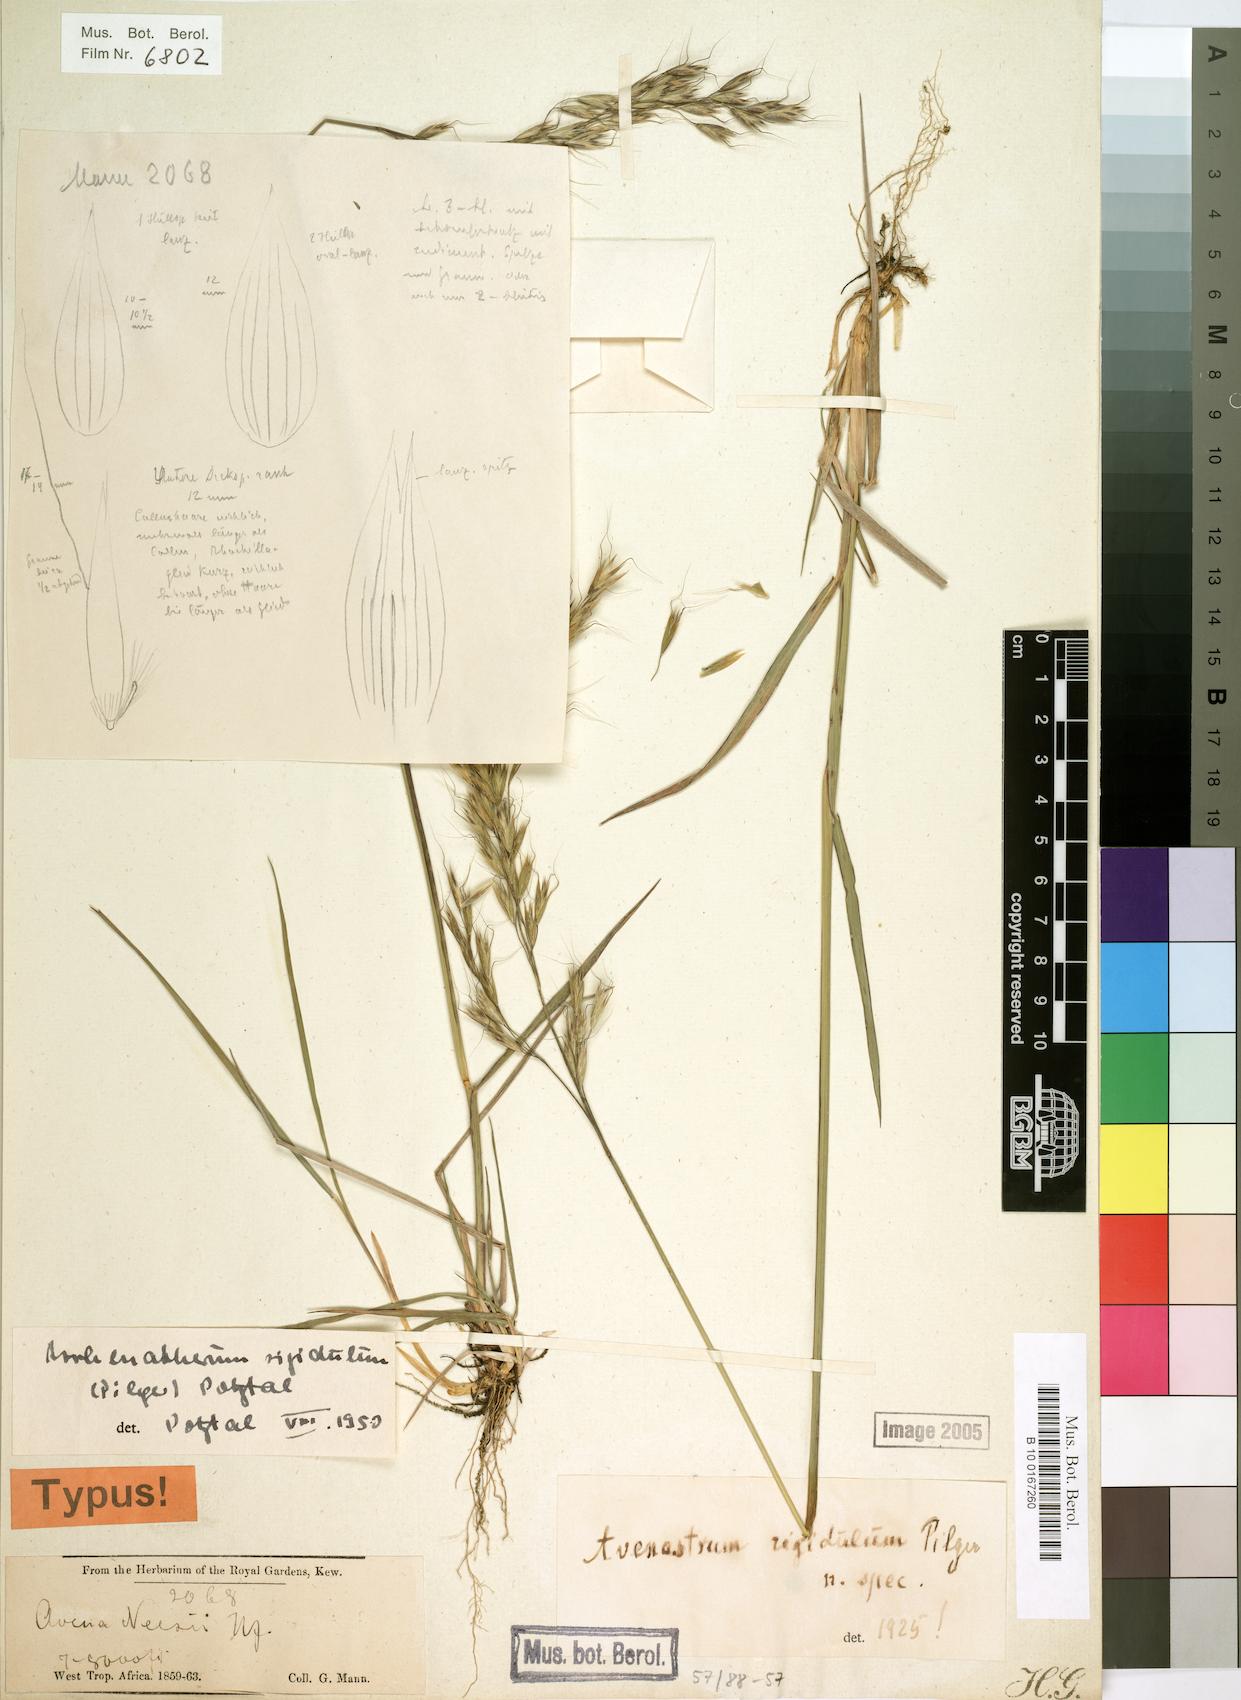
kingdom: Plantae
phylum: Tracheophyta
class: Liliopsida
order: Poales
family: Poaceae
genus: Trisetopsis
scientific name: Trisetopsis elongata
